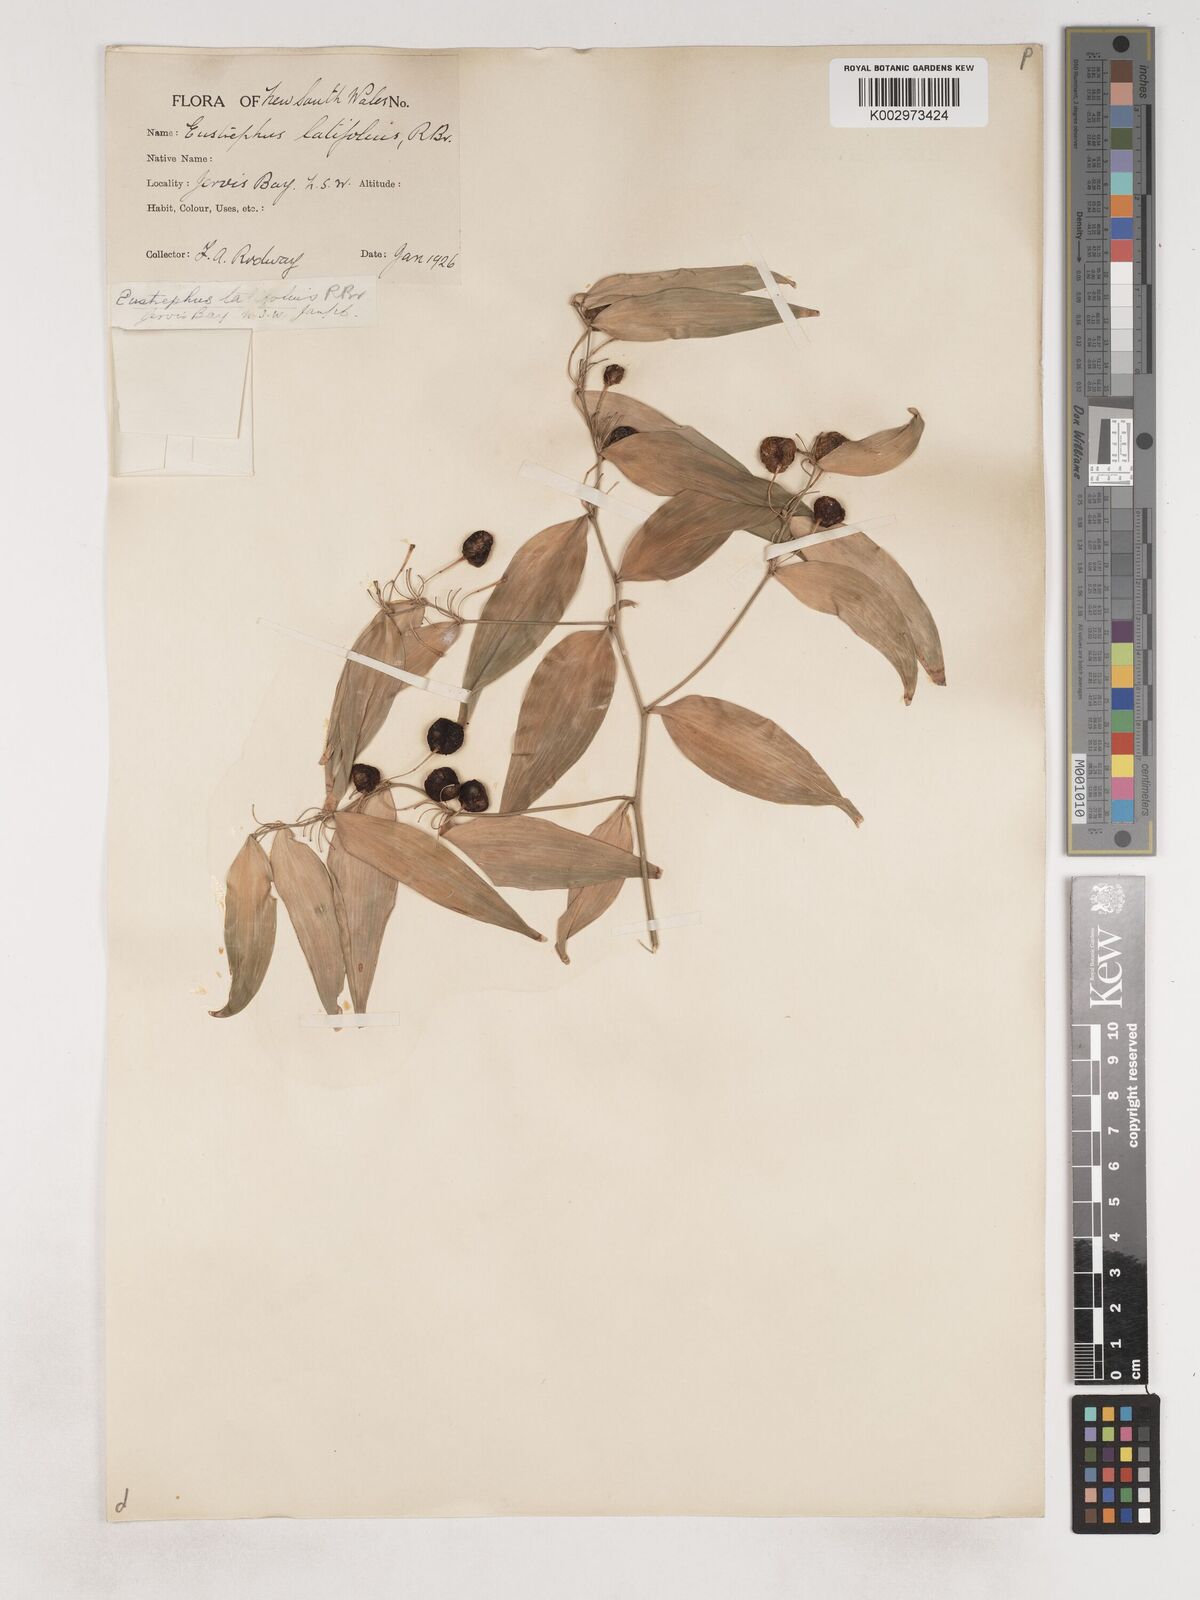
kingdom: Plantae
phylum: Tracheophyta
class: Liliopsida
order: Asparagales
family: Asparagaceae
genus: Eustrephus
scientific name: Eustrephus latifolius
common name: Orangevine
